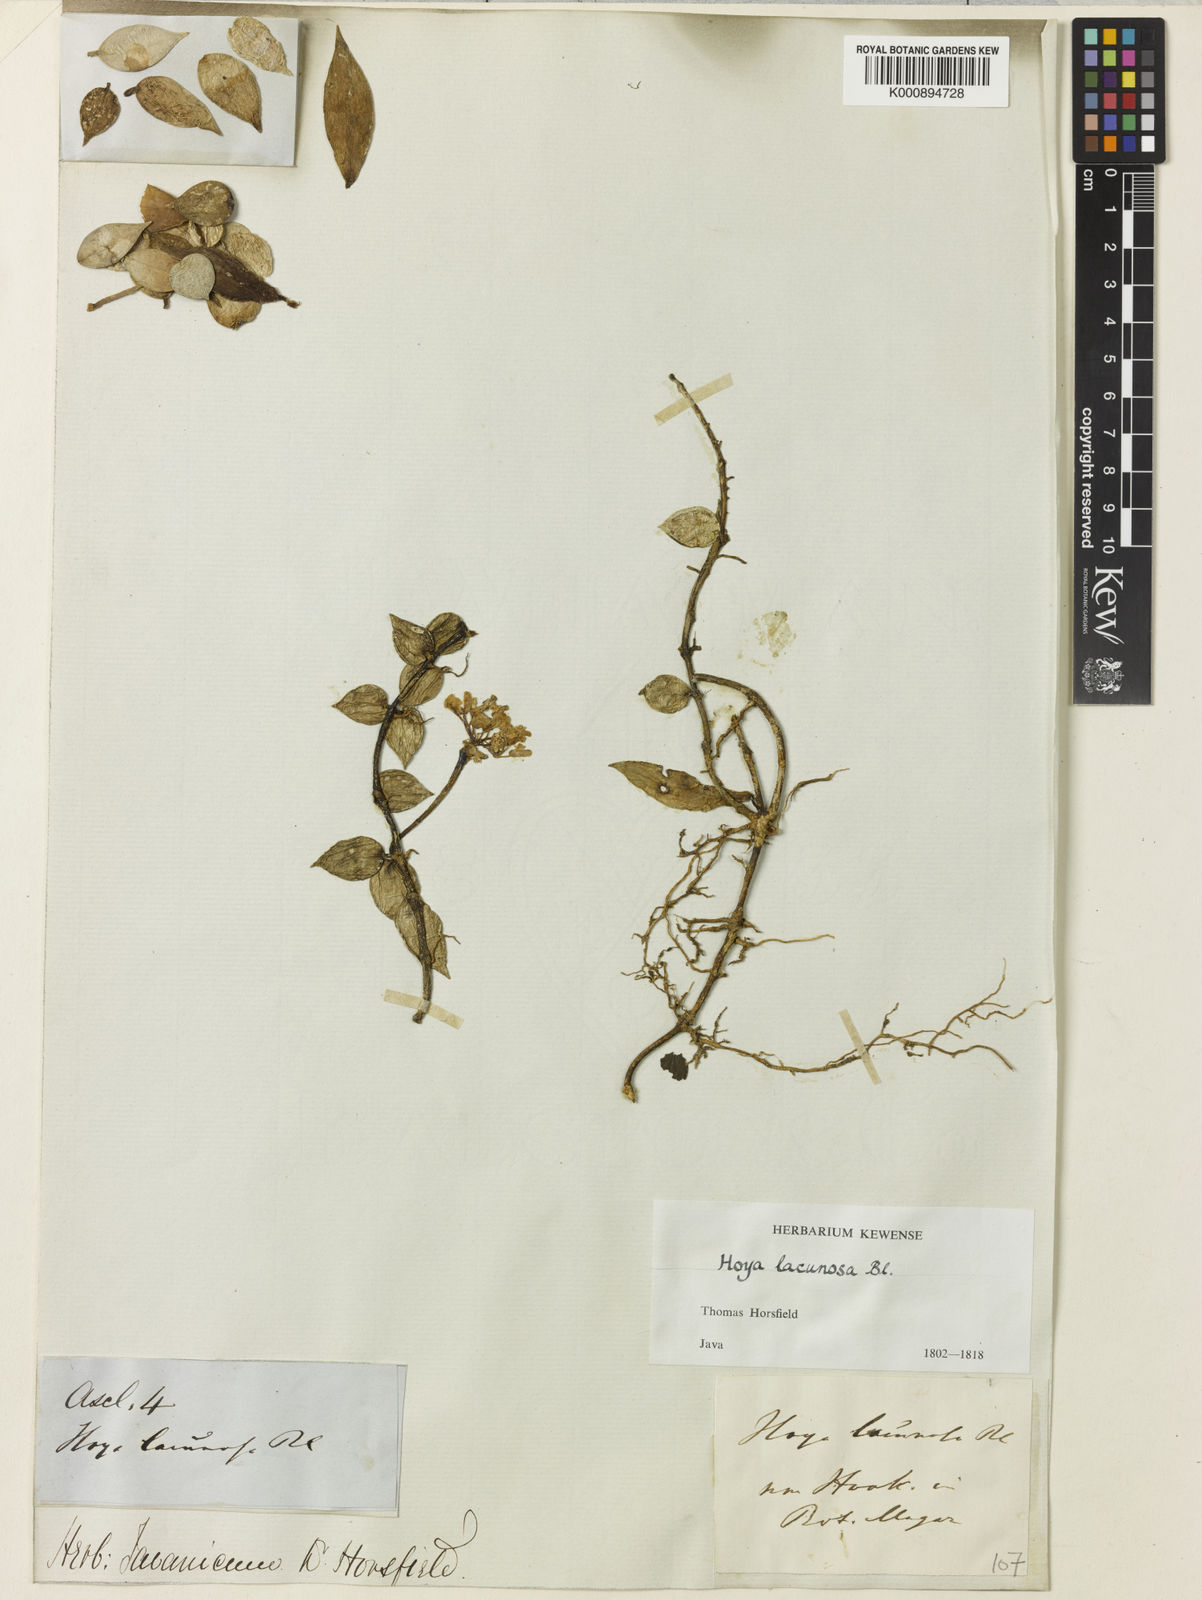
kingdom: Plantae
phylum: Tracheophyta
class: Magnoliopsida
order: Gentianales
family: Apocynaceae
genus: Hoya
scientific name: Hoya lacunosa
